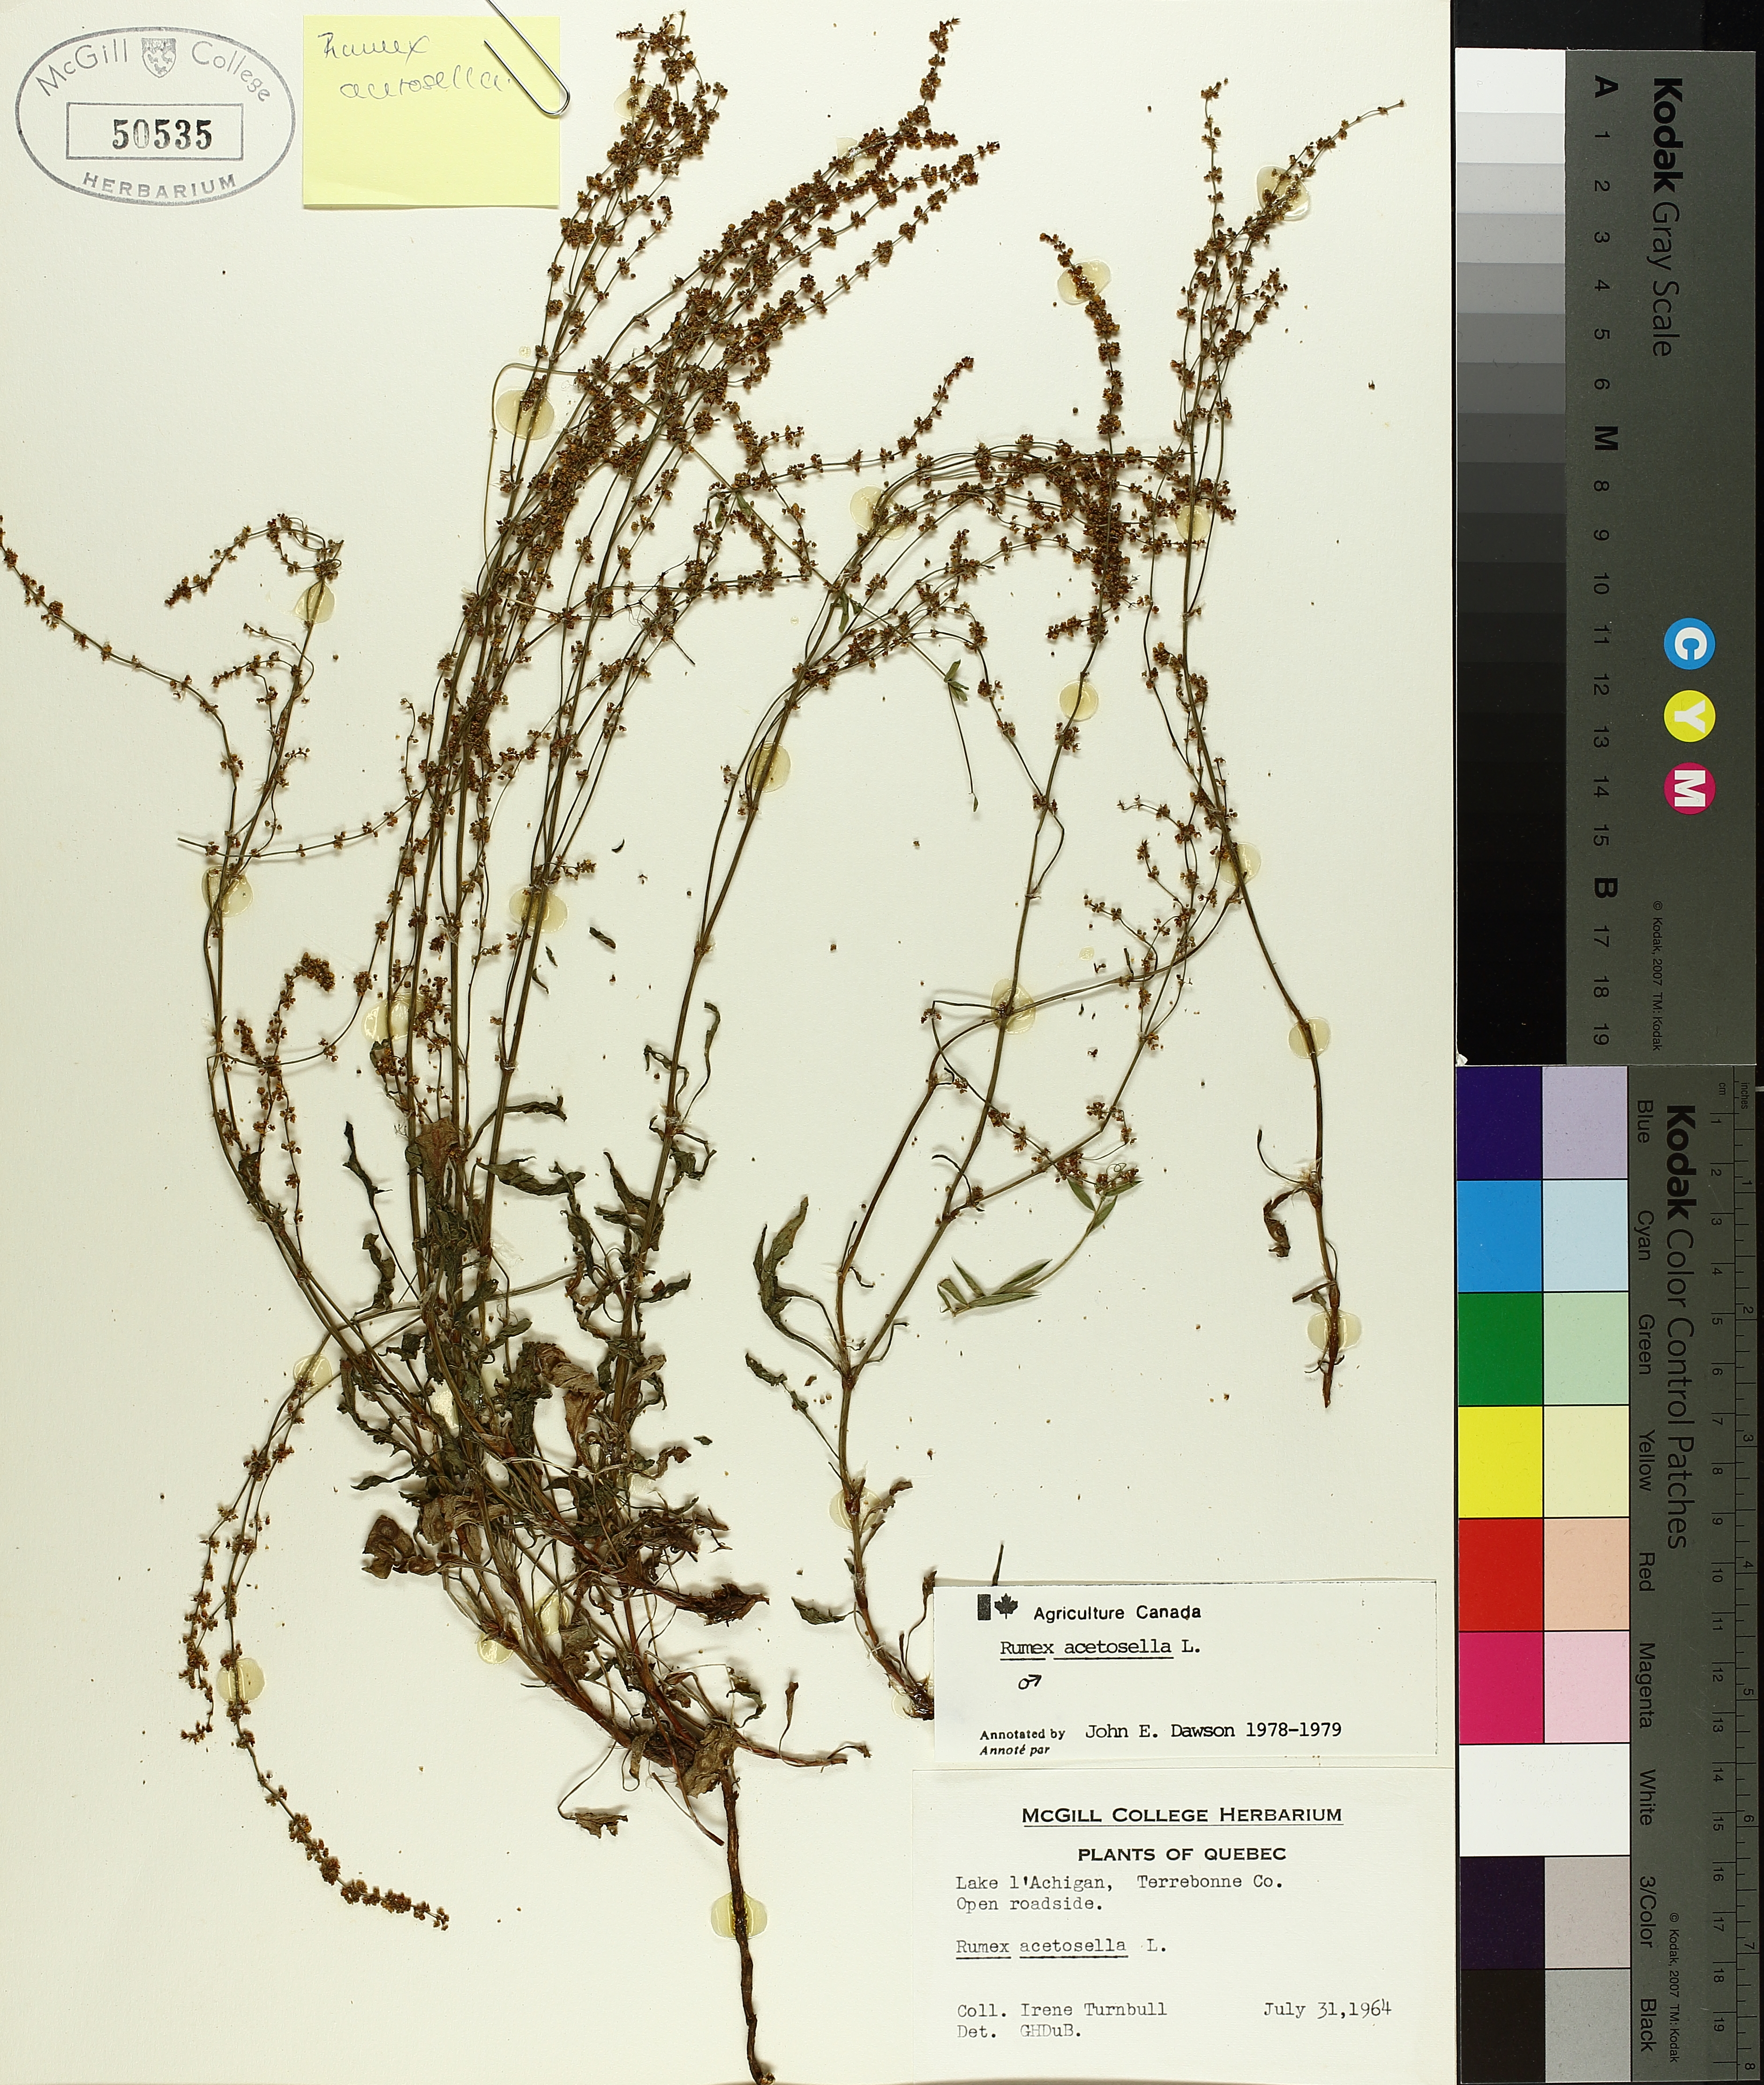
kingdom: Plantae
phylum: Tracheophyta
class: Magnoliopsida
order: Caryophyllales
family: Polygonaceae
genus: Rumex
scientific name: Rumex acetosella
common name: Common sheep sorrel
